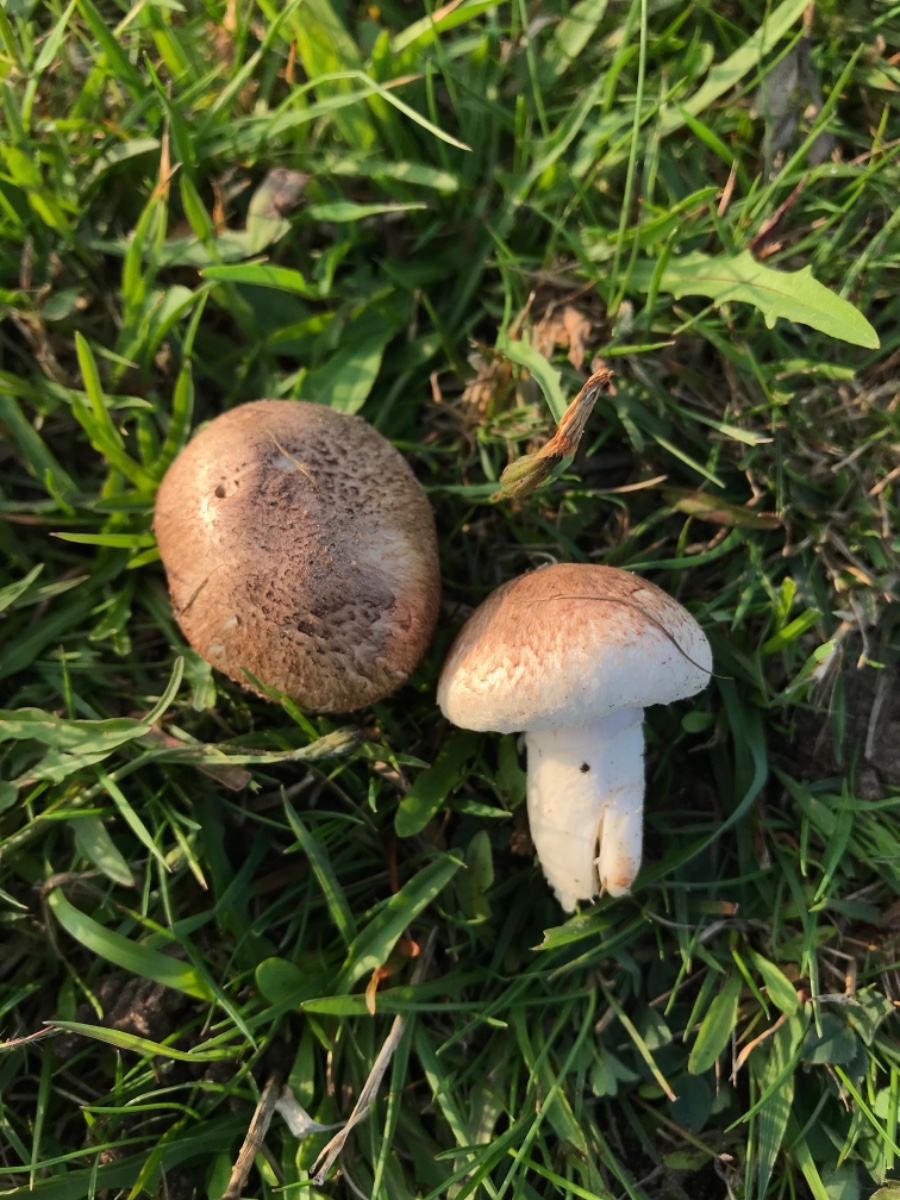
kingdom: Fungi
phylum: Basidiomycota
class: Agaricomycetes
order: Agaricales
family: Agaricaceae
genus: Agaricus
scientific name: Agaricus cupreobrunneus
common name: kobberbrun champignon
